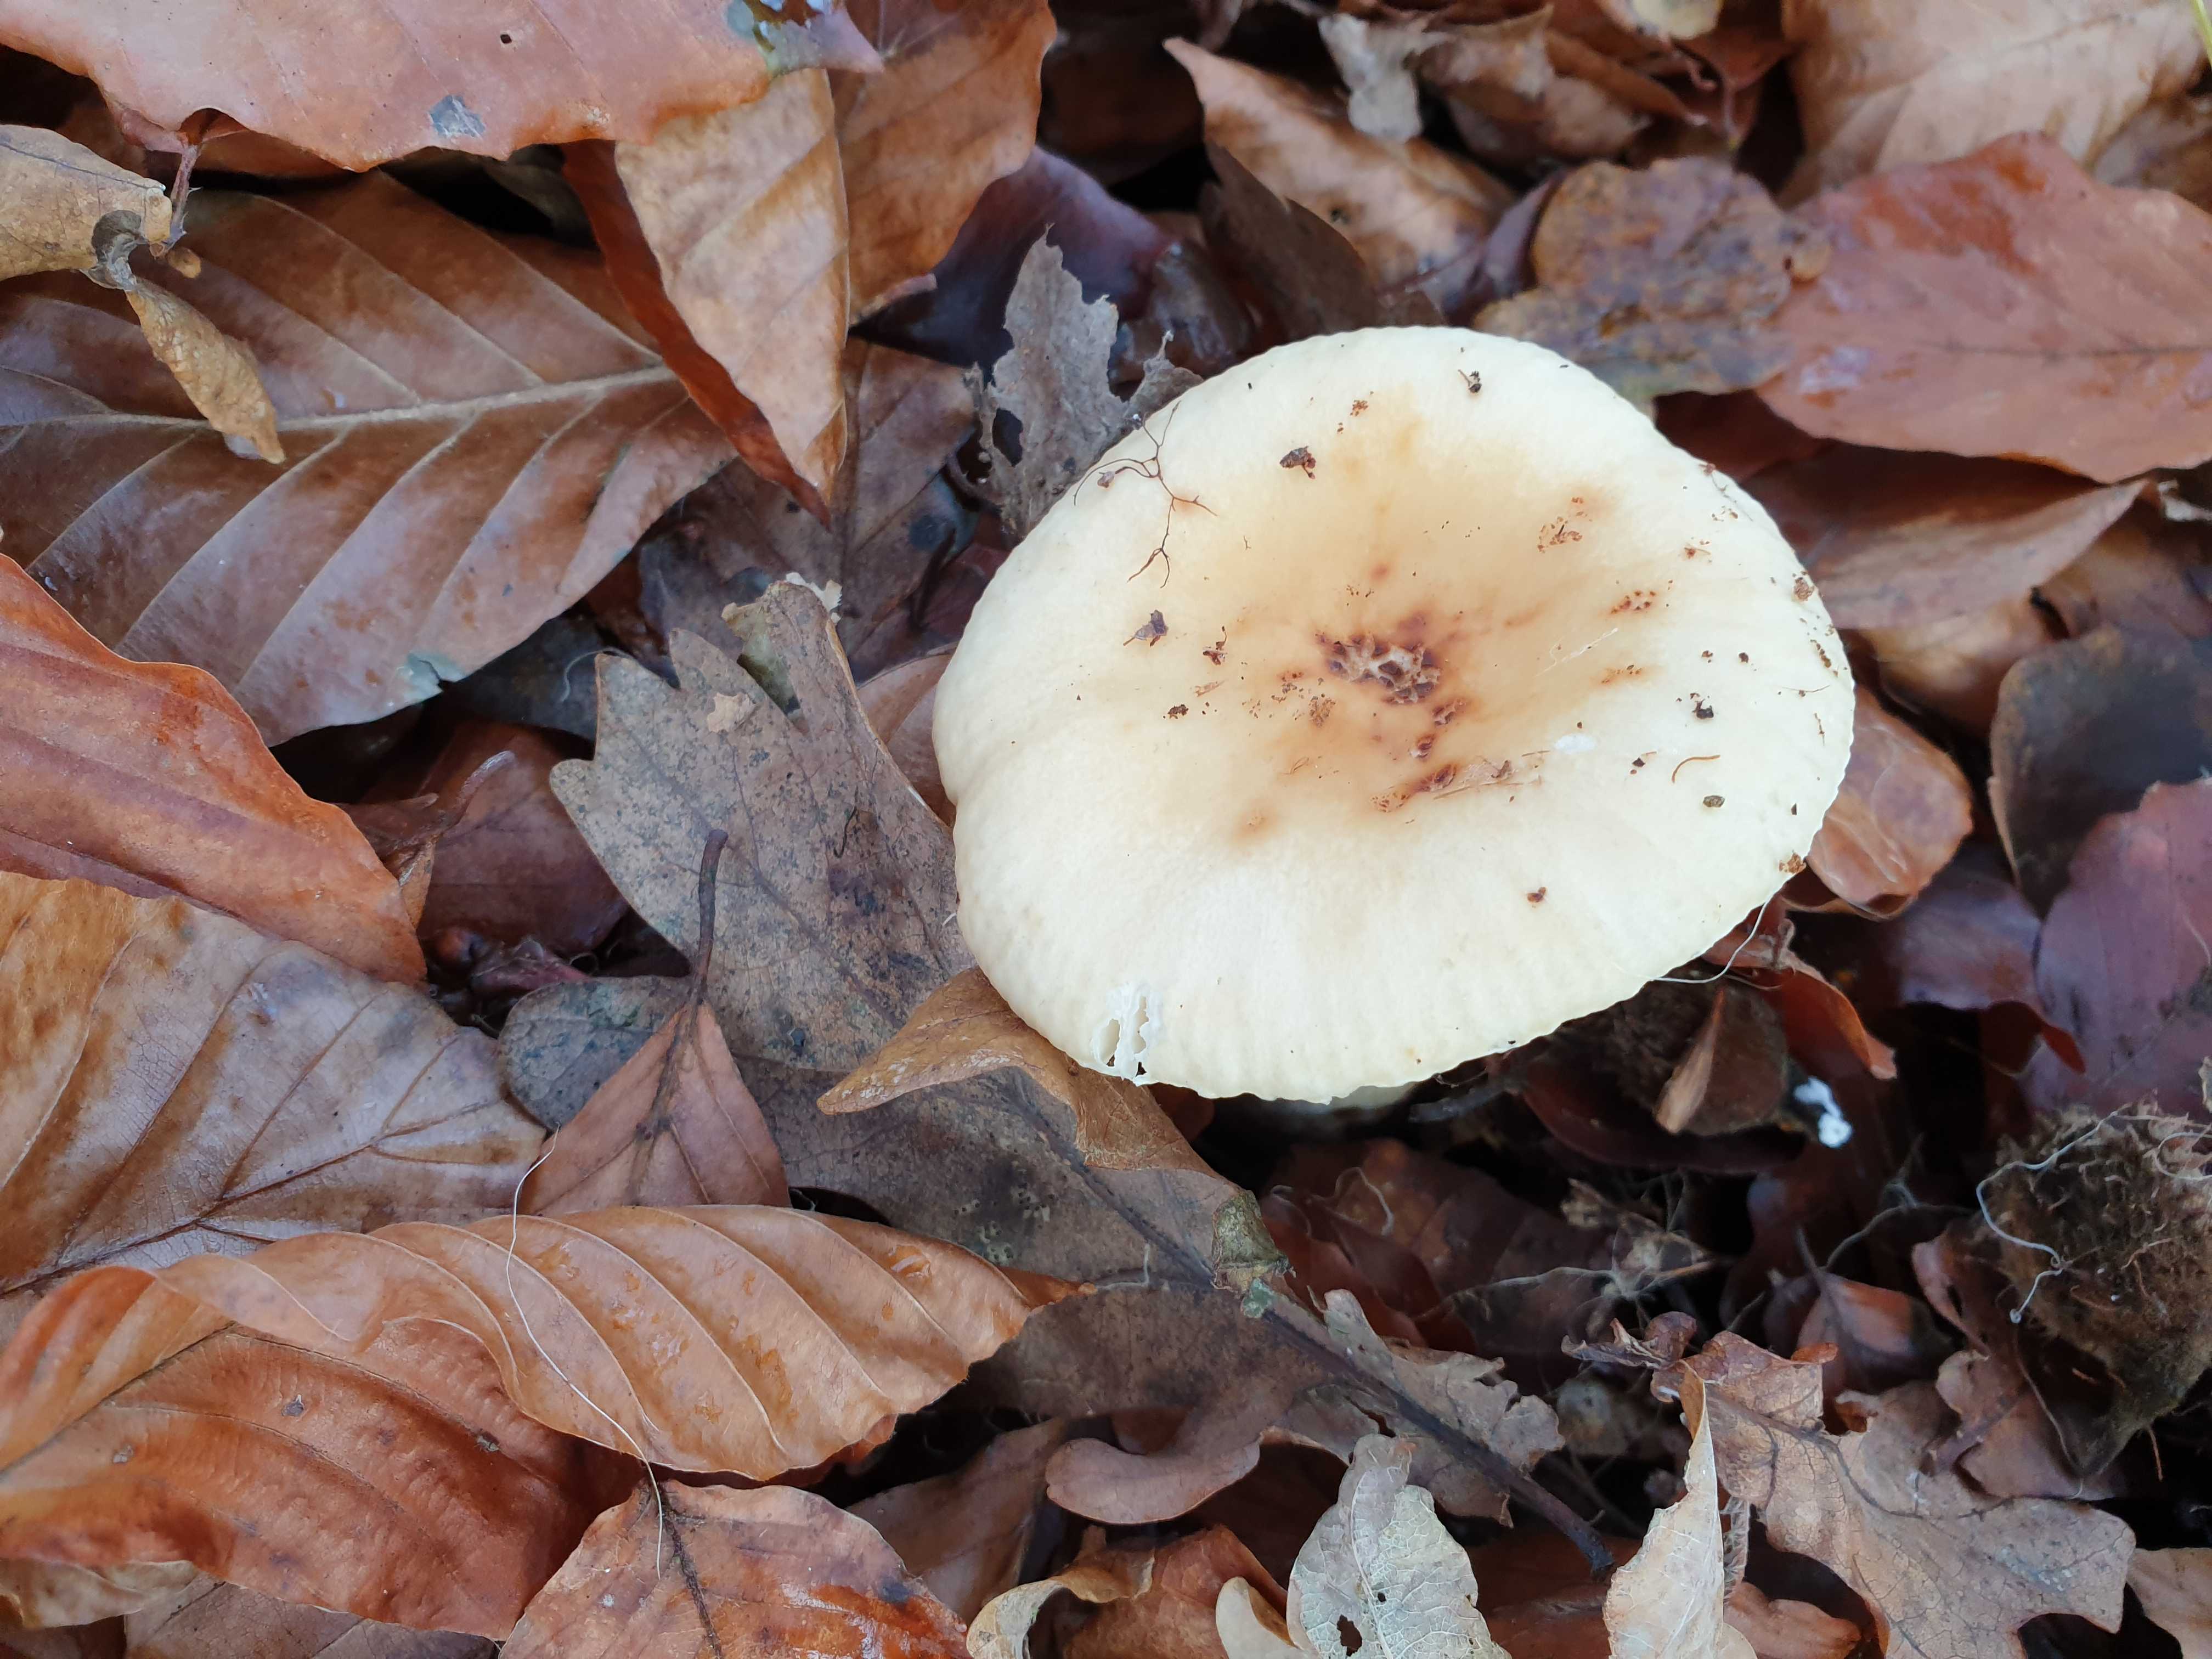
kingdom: Fungi
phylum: Basidiomycota
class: Agaricomycetes
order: Russulales
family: Russulaceae
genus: Russula
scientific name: Russula fellea
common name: galde-skørhat
